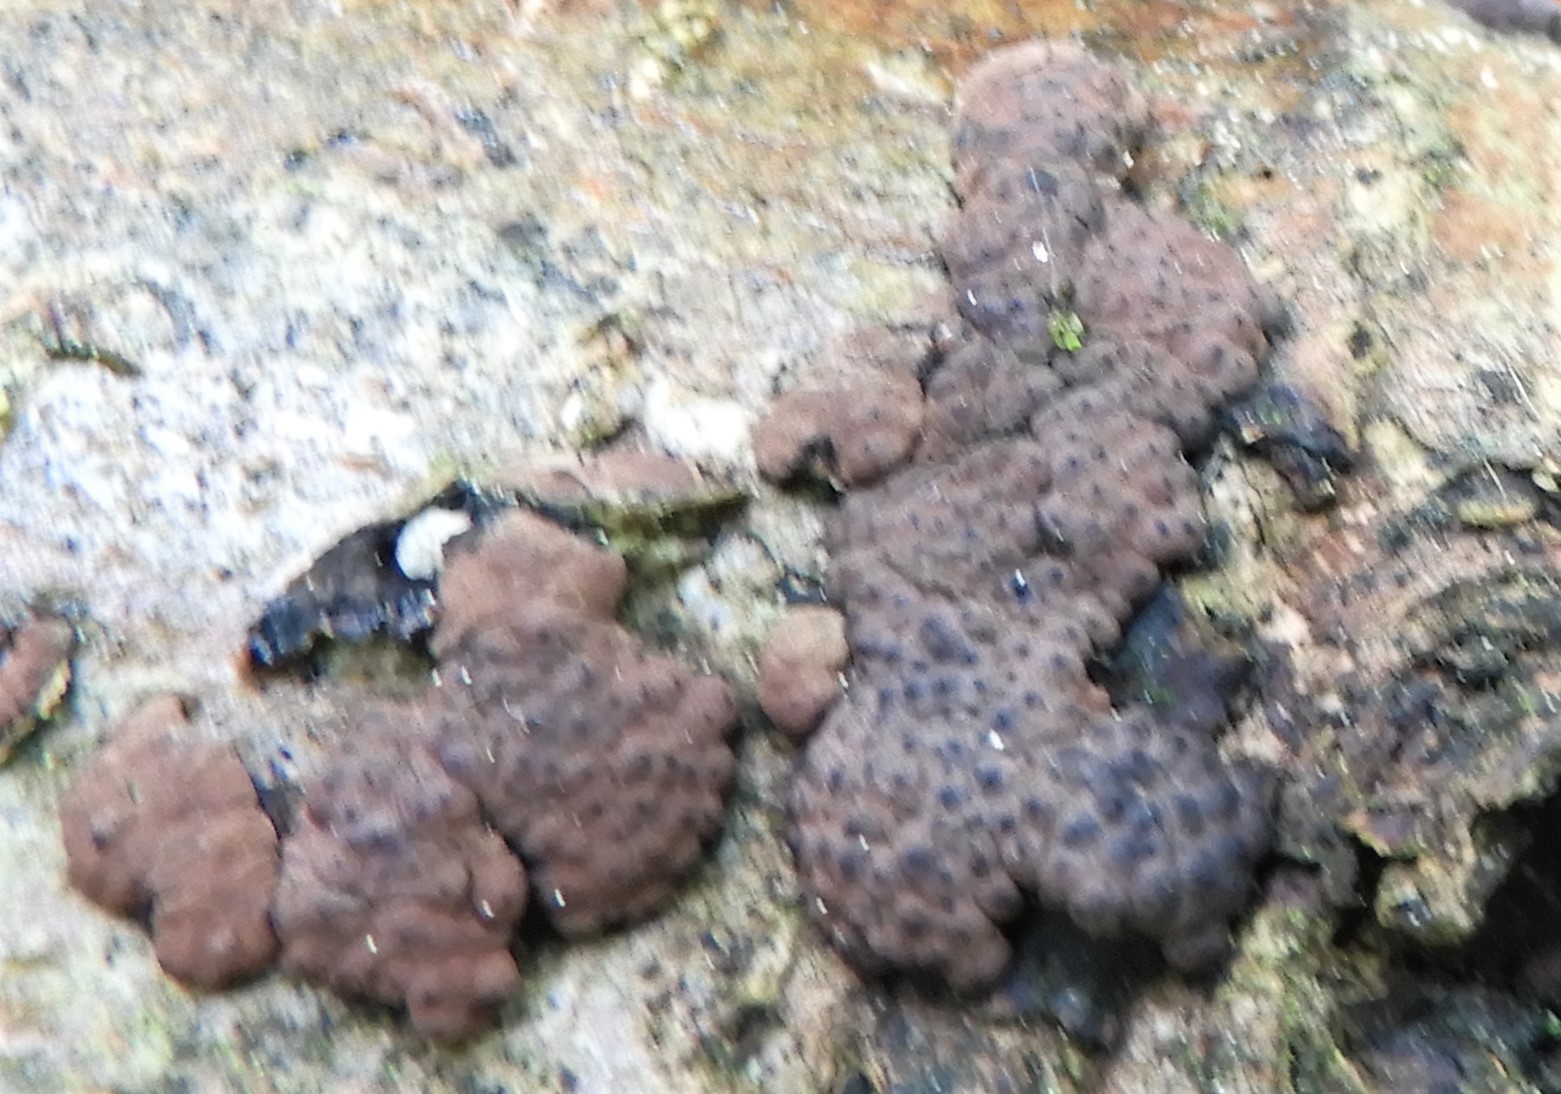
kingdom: Fungi
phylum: Ascomycota
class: Sordariomycetes
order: Xylariales
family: Hypoxylaceae
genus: Jackrogersella
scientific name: Jackrogersella multiformis
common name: foranderlig kulbær
